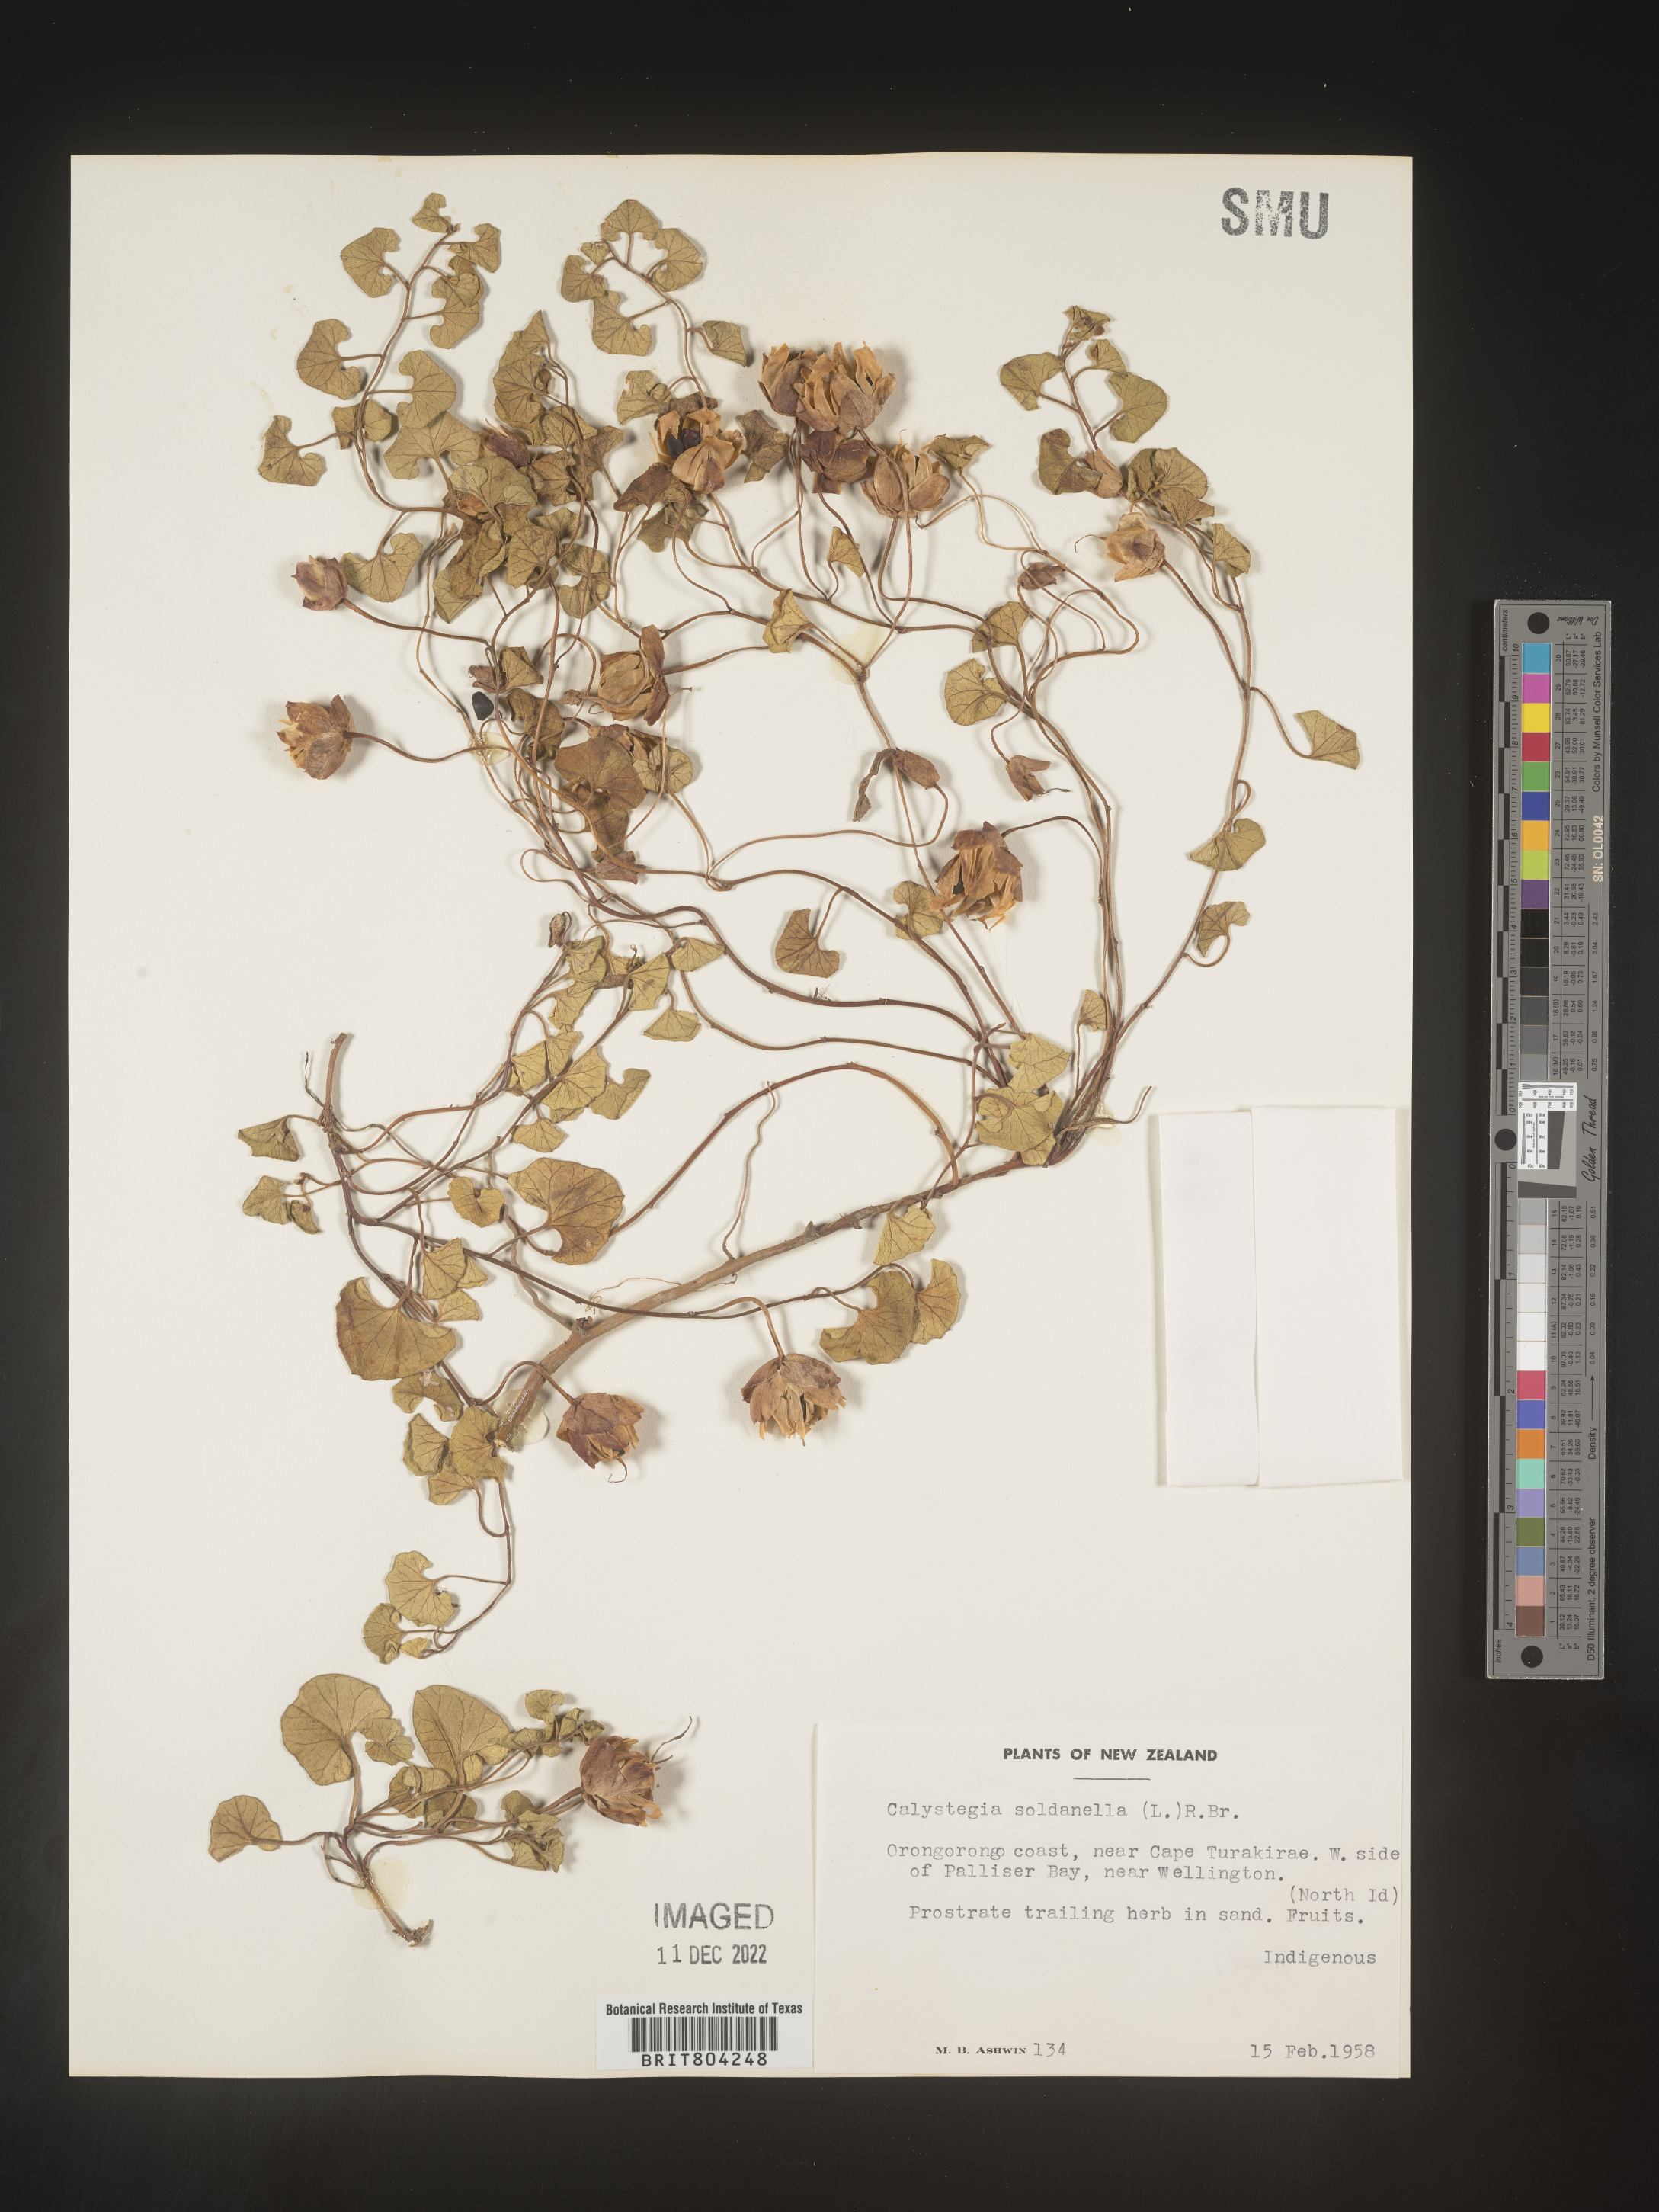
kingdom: Plantae
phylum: Tracheophyta
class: Magnoliopsida
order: Solanales
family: Convolvulaceae
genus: Calystegia
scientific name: Calystegia
